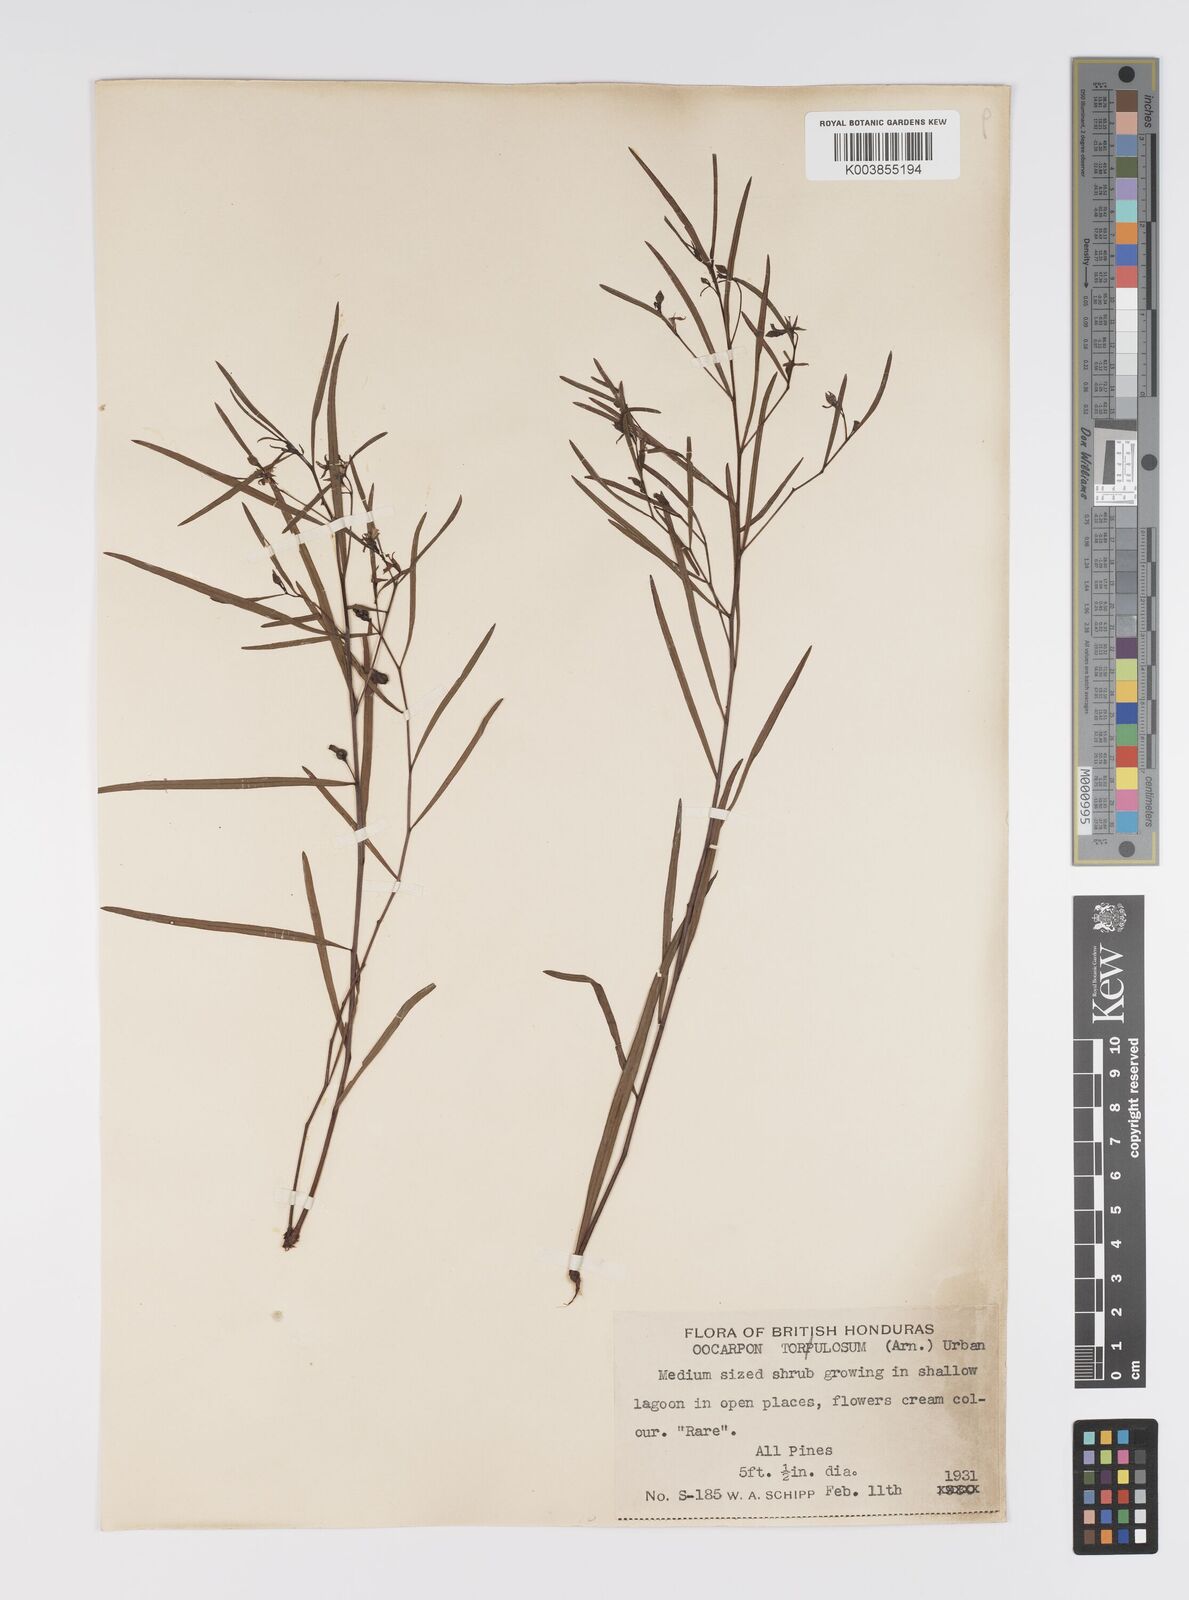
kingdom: Plantae
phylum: Tracheophyta
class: Magnoliopsida
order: Myrtales
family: Onagraceae
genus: Ludwigia
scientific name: Ludwigia
